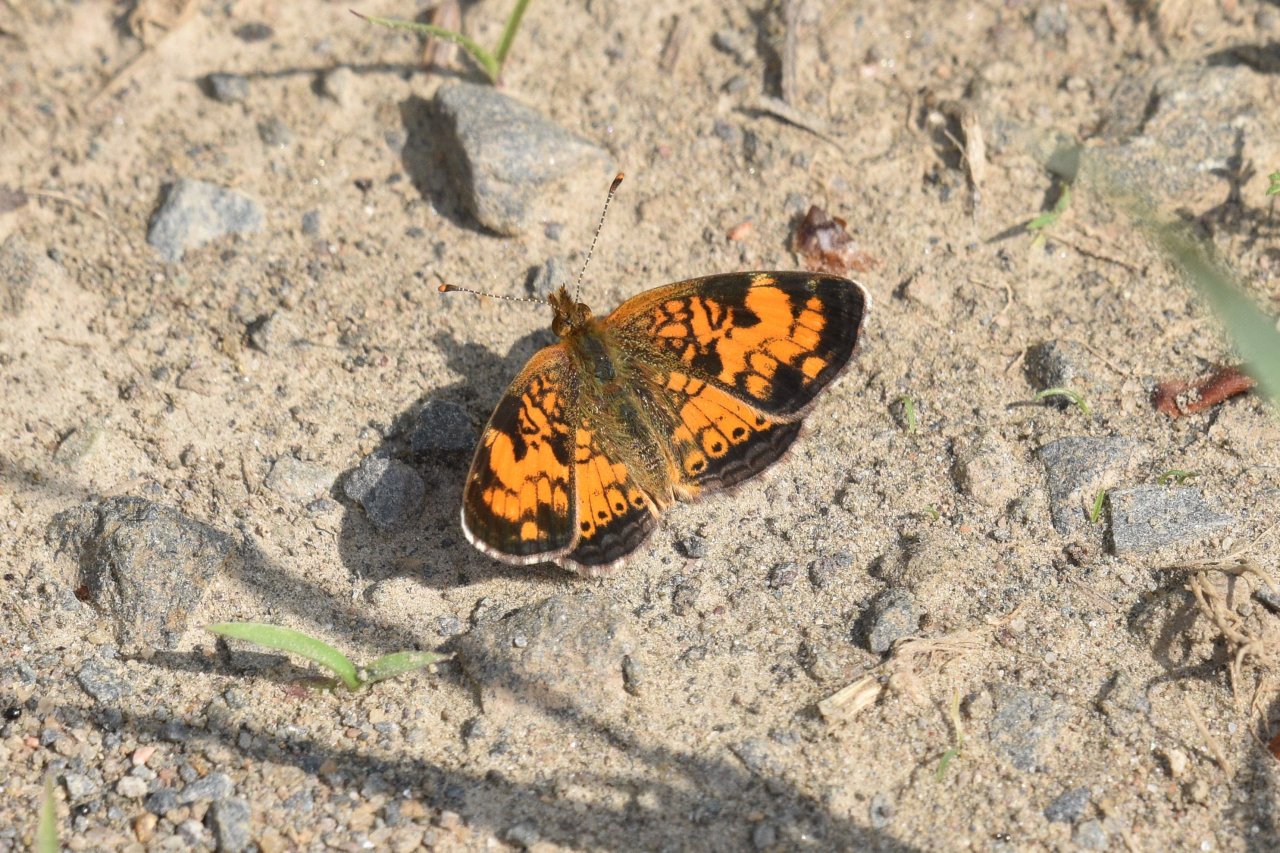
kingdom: Animalia
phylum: Arthropoda
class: Insecta
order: Lepidoptera
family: Nymphalidae
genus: Phyciodes
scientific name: Phyciodes tharos
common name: Northern Crescent
